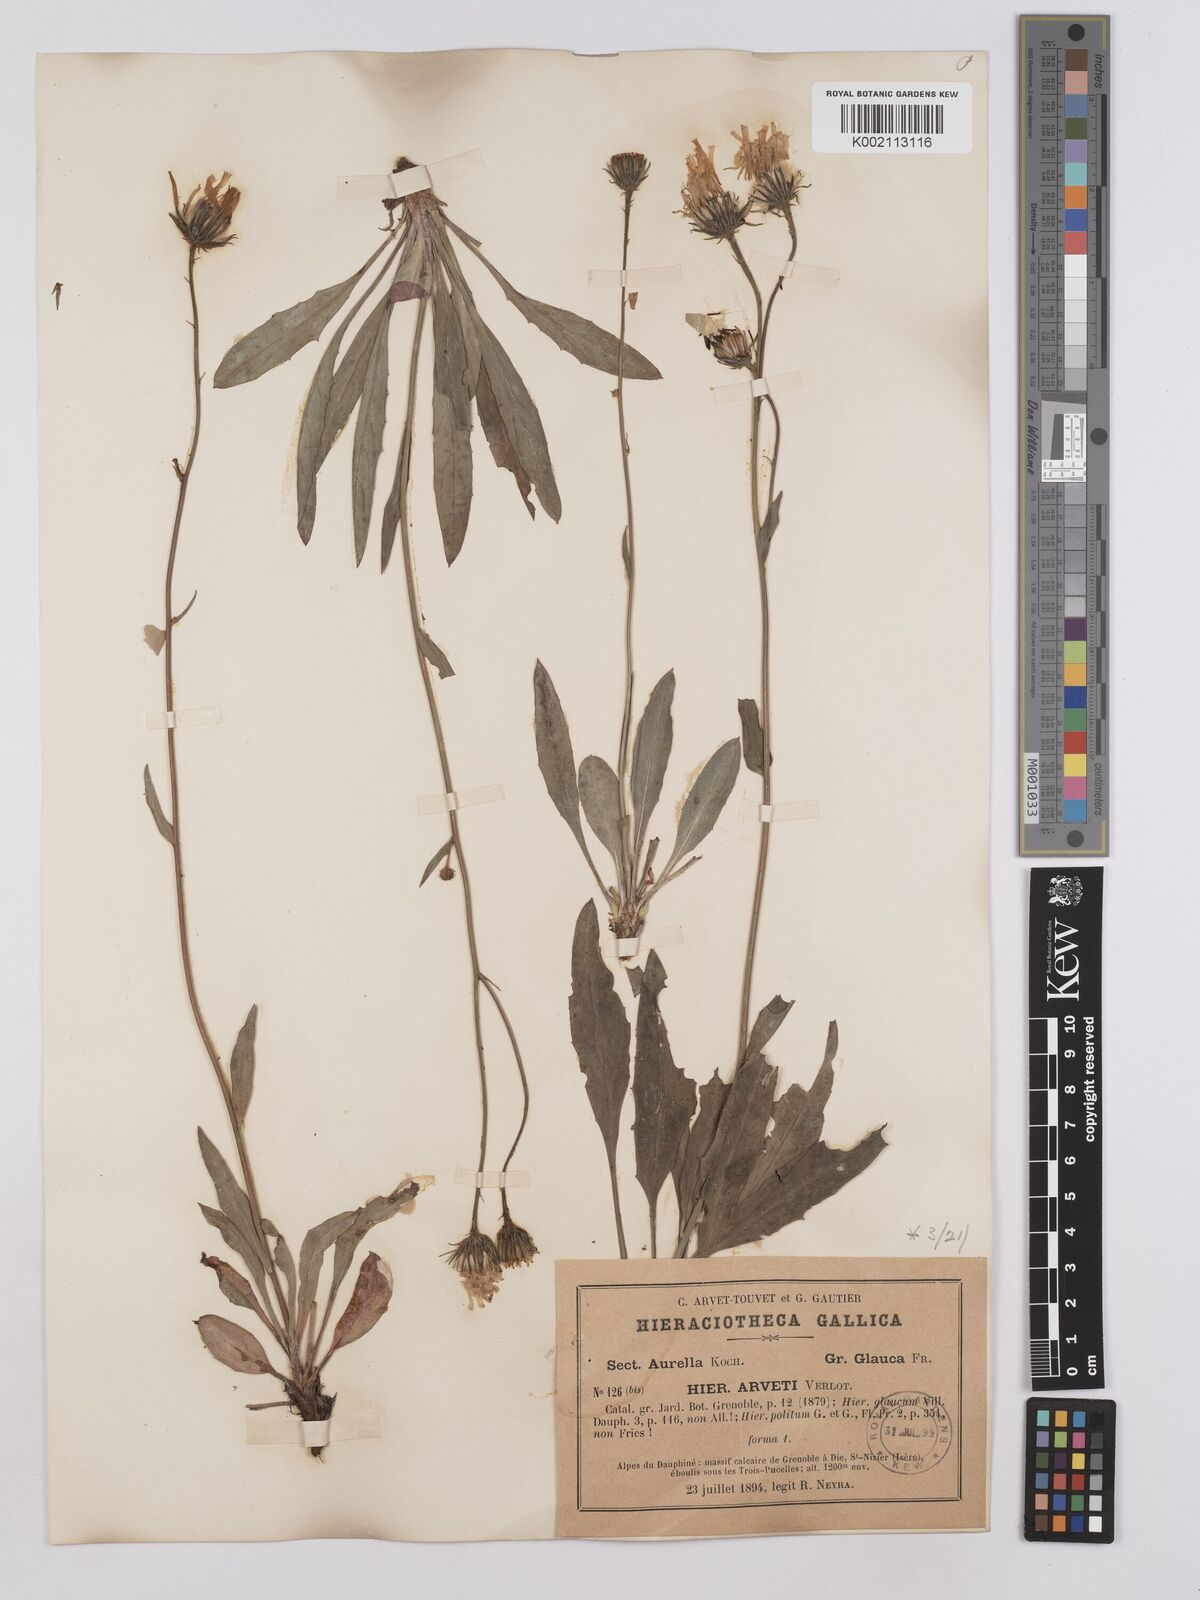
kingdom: Plantae
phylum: Tracheophyta
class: Magnoliopsida
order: Asterales
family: Asteraceae
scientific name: Asteraceae
